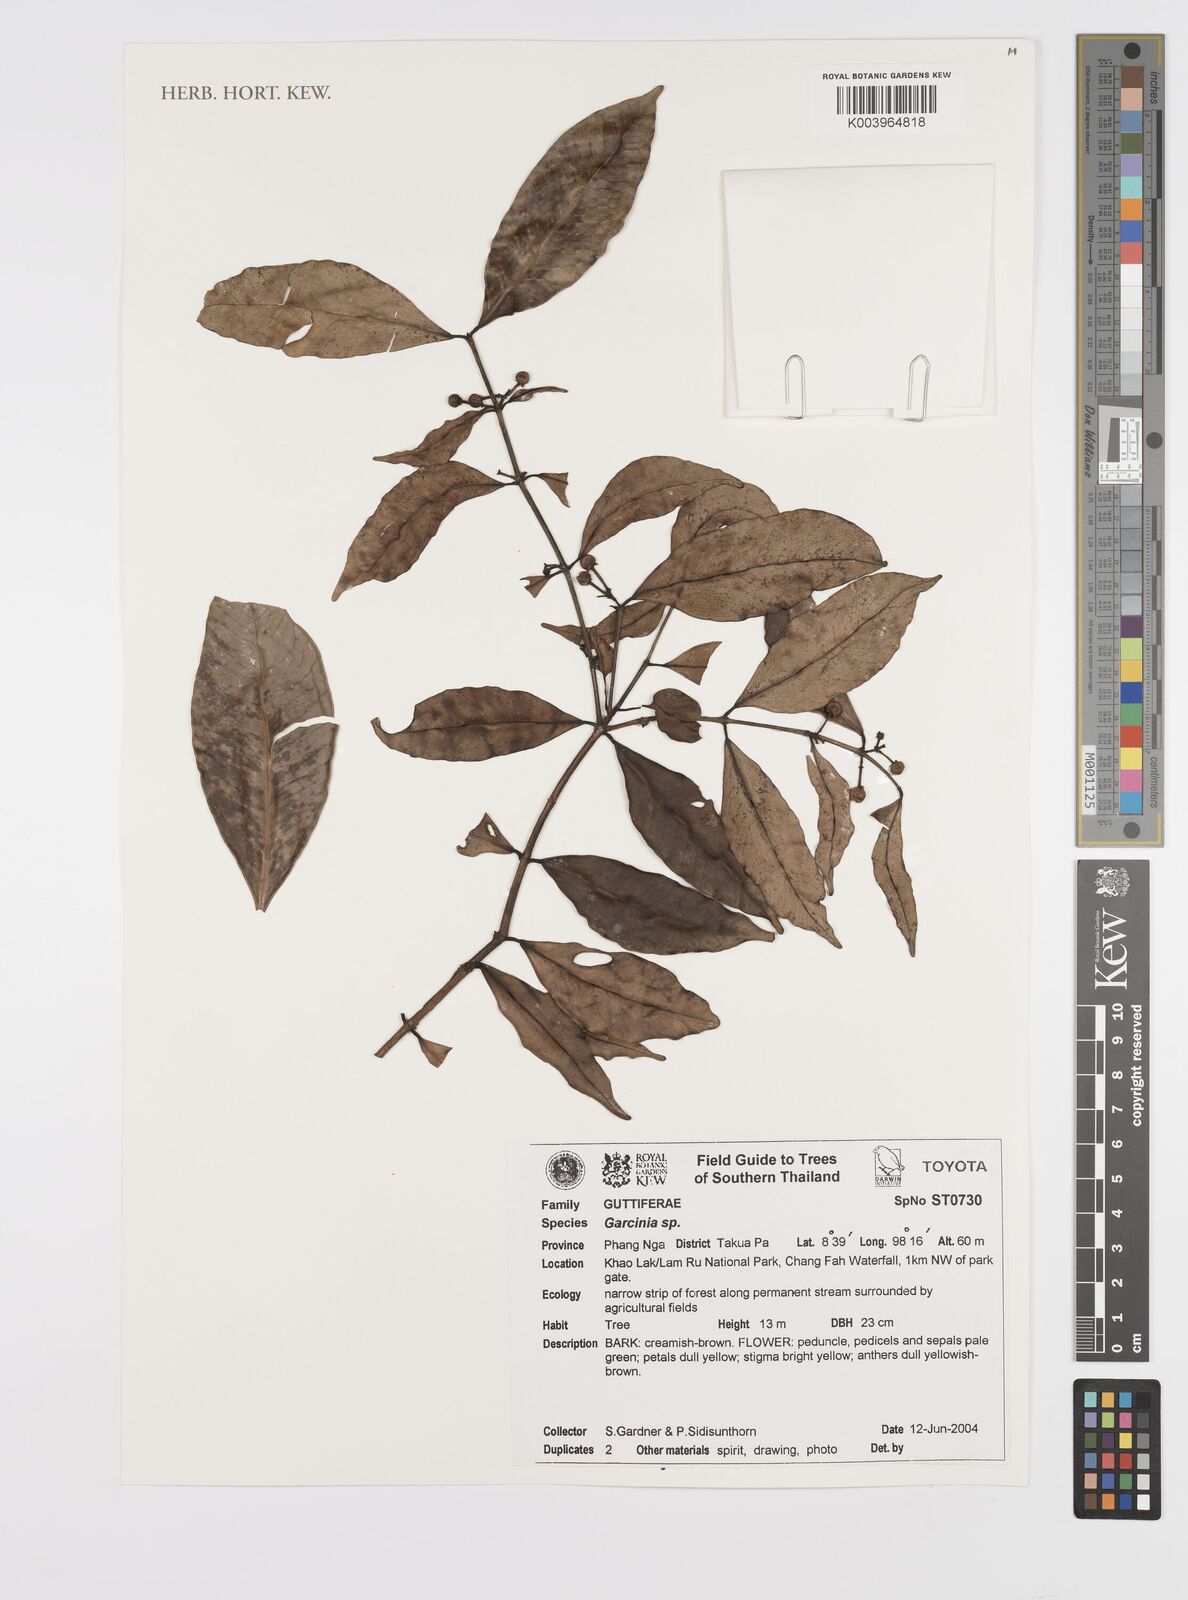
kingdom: Plantae
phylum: Tracheophyta
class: Magnoliopsida
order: Malpighiales
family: Clusiaceae
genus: Garcinia
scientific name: Garcinia
